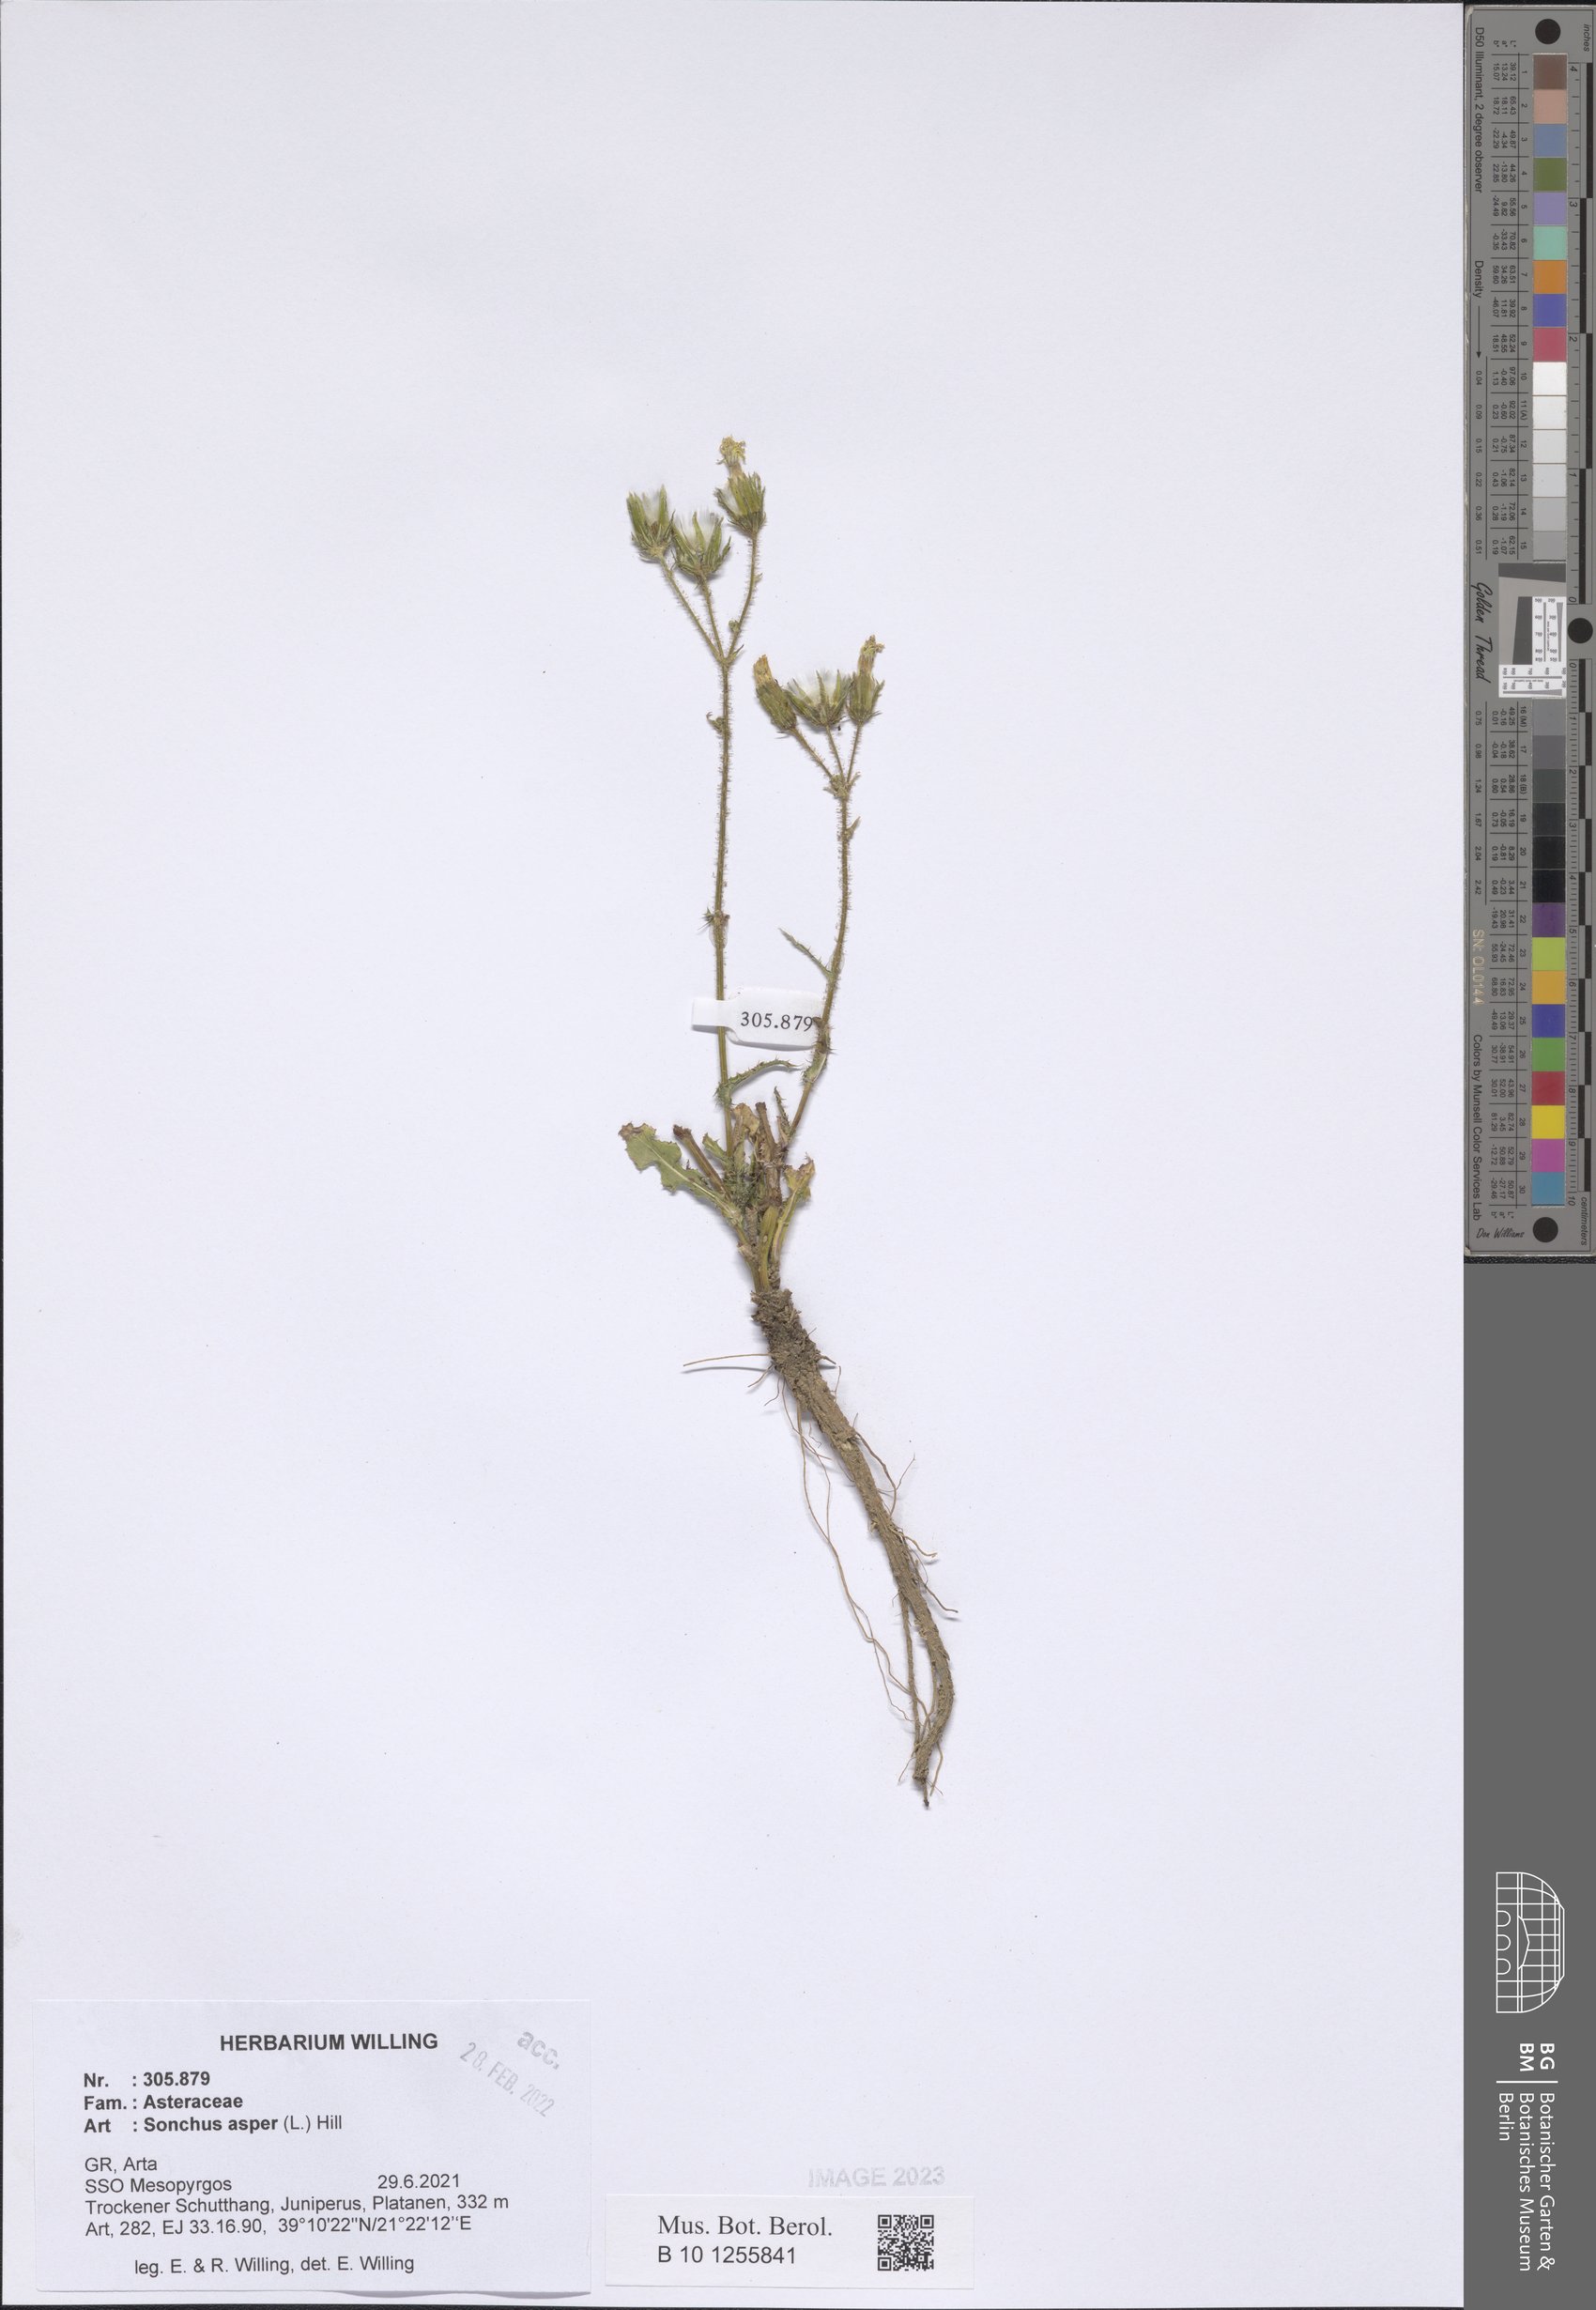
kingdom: Plantae
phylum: Tracheophyta
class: Magnoliopsida
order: Asterales
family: Asteraceae
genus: Sonchus
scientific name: Sonchus asper
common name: Prickly sow-thistle
